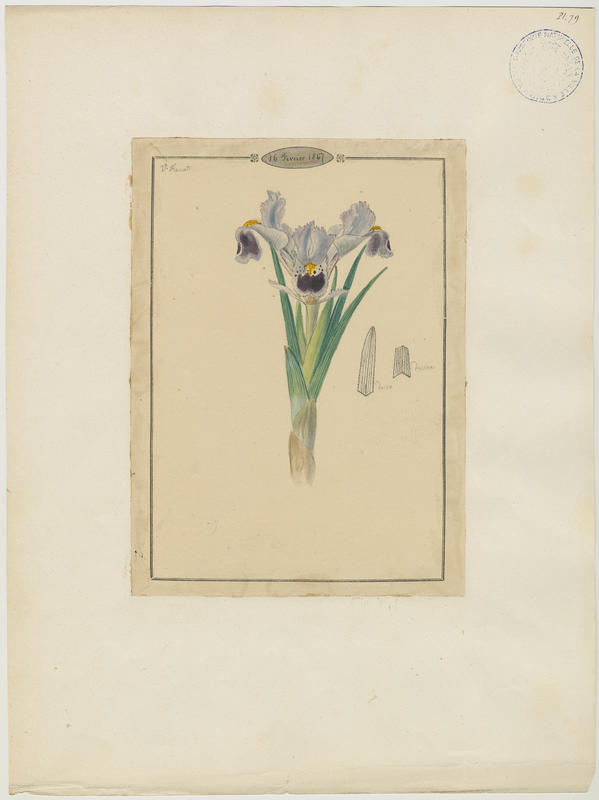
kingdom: Plantae
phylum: Tracheophyta
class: Liliopsida
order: Asparagales
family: Iridaceae
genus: Iris
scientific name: Iris
